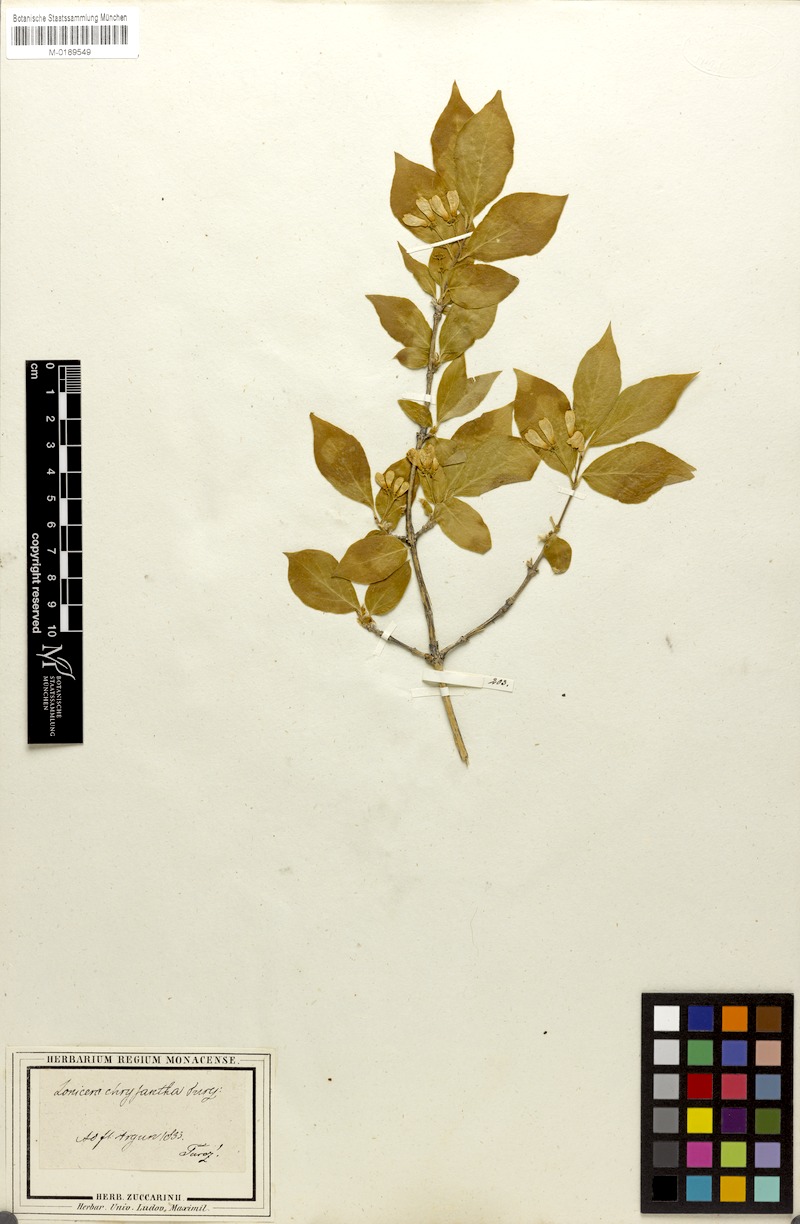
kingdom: Plantae
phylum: Tracheophyta
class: Magnoliopsida
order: Dipsacales
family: Caprifoliaceae
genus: Lonicera
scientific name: Lonicera chrysantha
